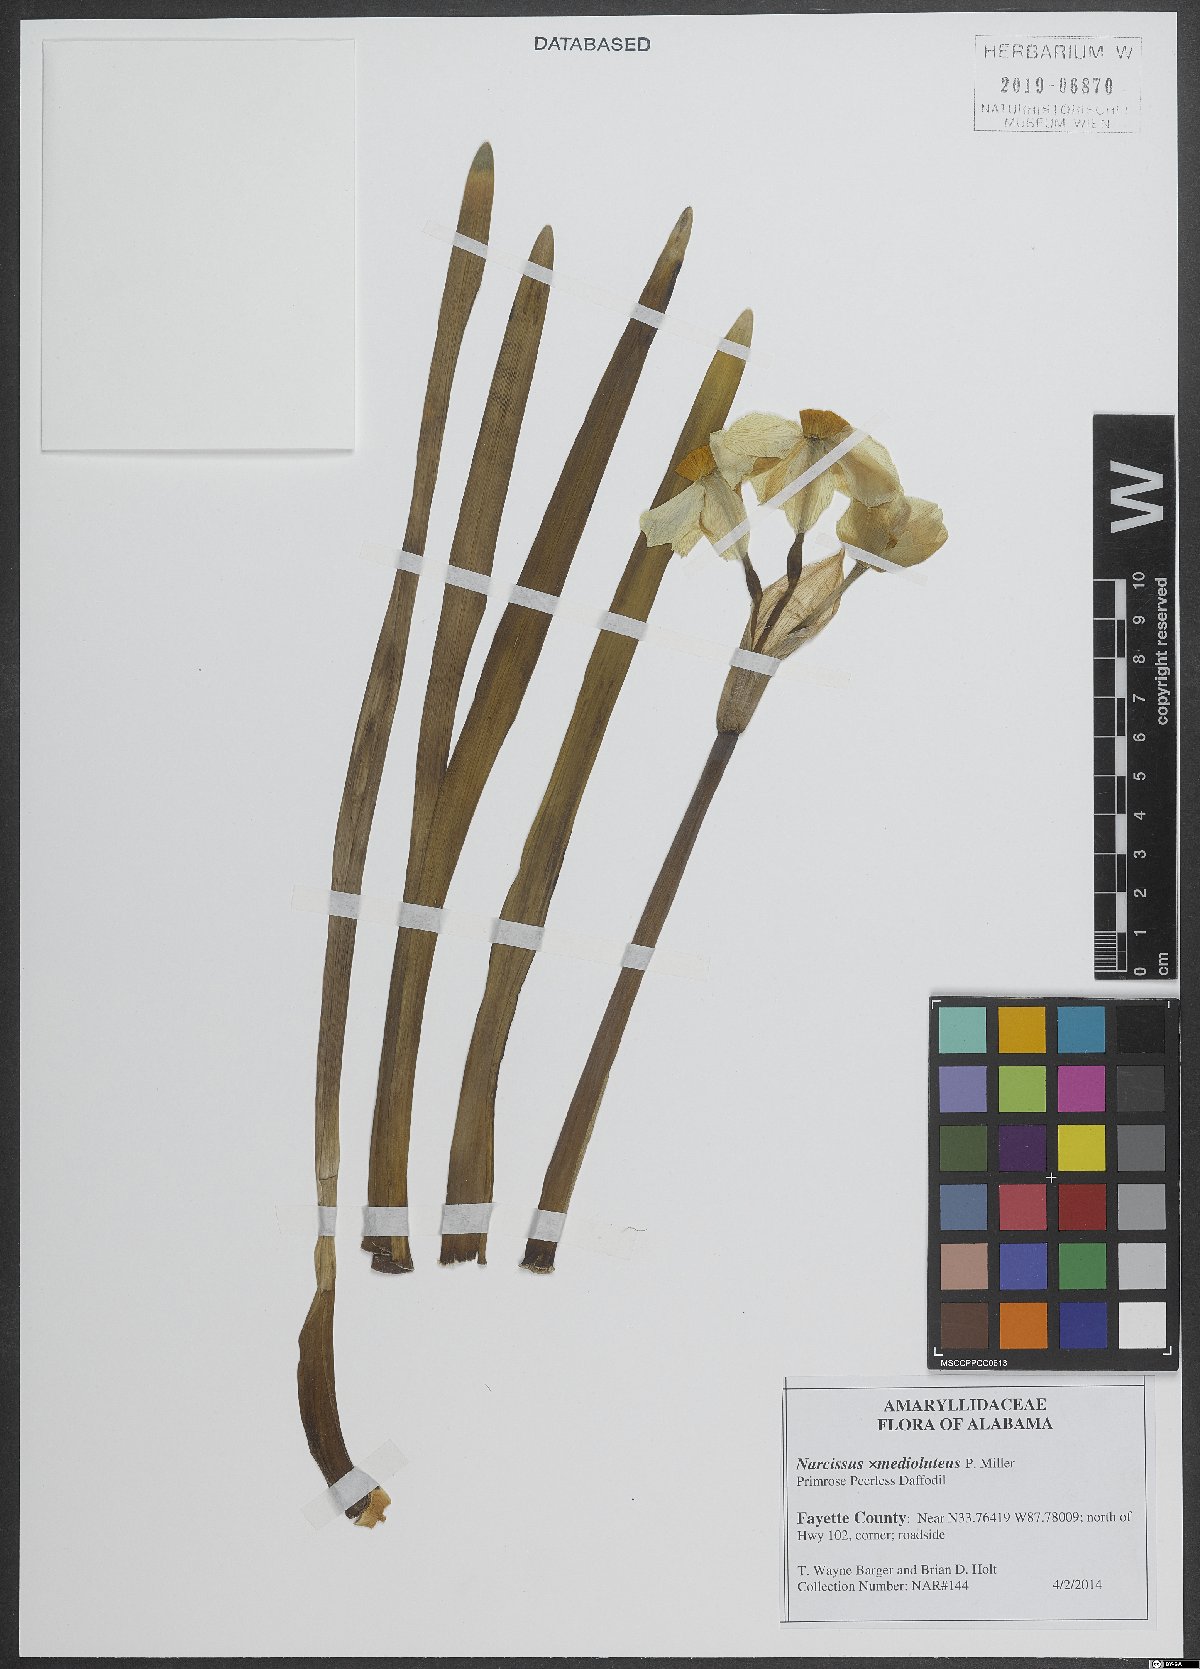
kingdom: Plantae
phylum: Tracheophyta
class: Liliopsida
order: Asparagales
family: Amaryllidaceae
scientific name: Amaryllidaceae
